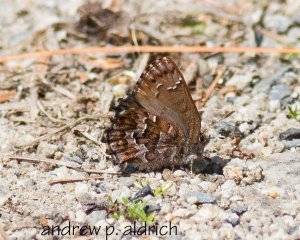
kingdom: Animalia
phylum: Arthropoda
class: Insecta
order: Lepidoptera
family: Lycaenidae
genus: Incisalia
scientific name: Incisalia niphon
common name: Eastern Pine Elfin
